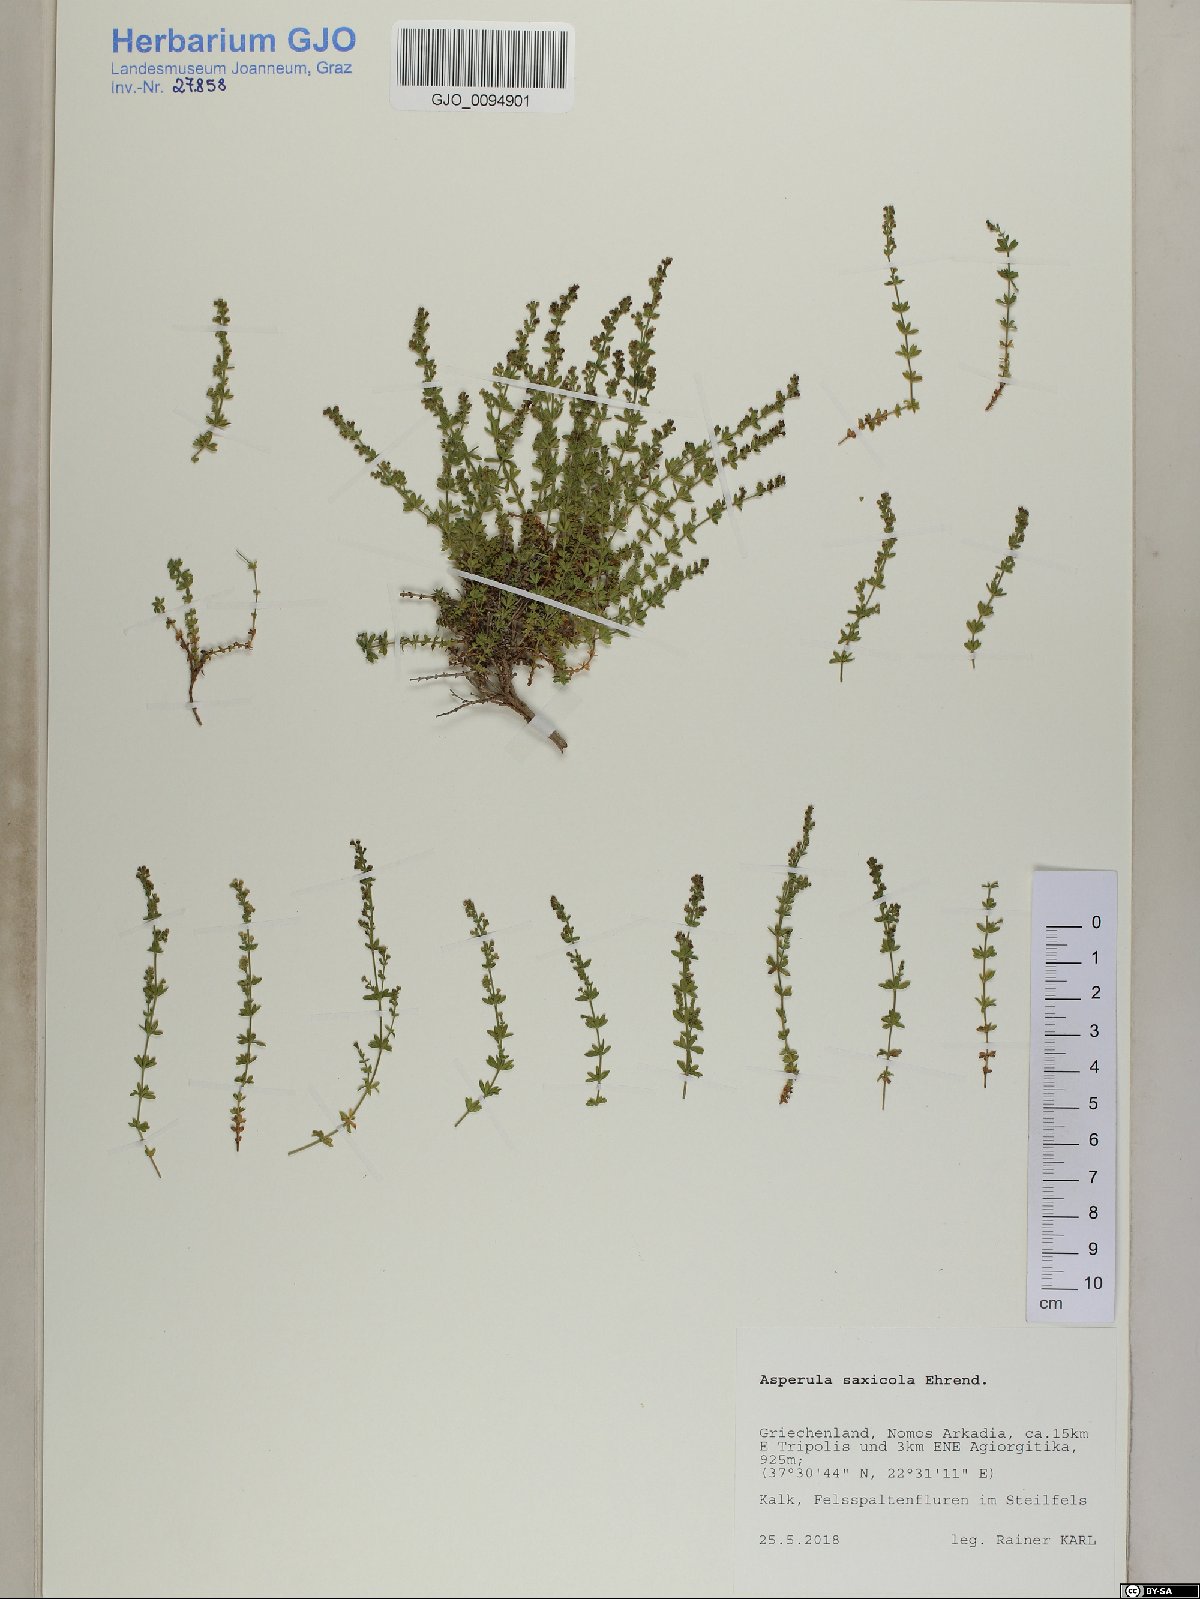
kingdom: Plantae
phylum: Tracheophyta
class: Magnoliopsida
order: Gentianales
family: Rubiaceae
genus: Thliphthisa
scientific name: Thliphthisa saxicola
